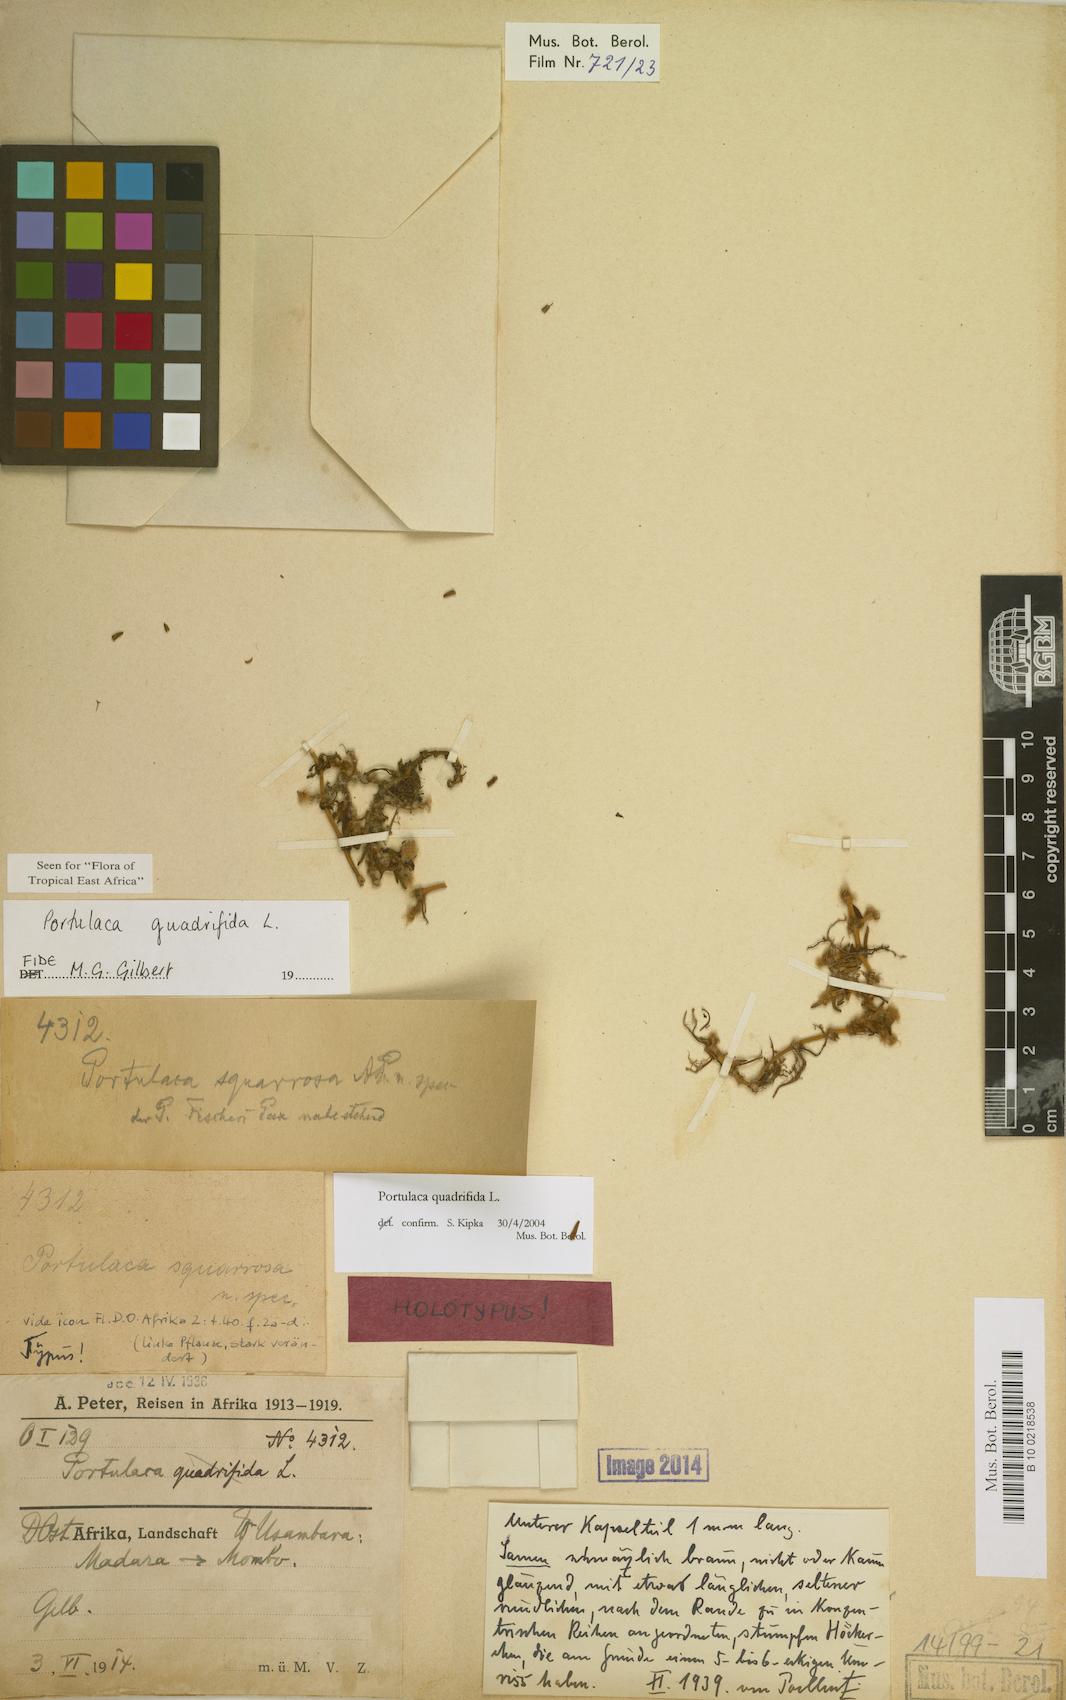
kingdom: Plantae
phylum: Tracheophyta
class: Magnoliopsida
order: Caryophyllales
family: Portulacaceae
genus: Portulaca
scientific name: Portulaca quadrifida
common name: Chickenweed
